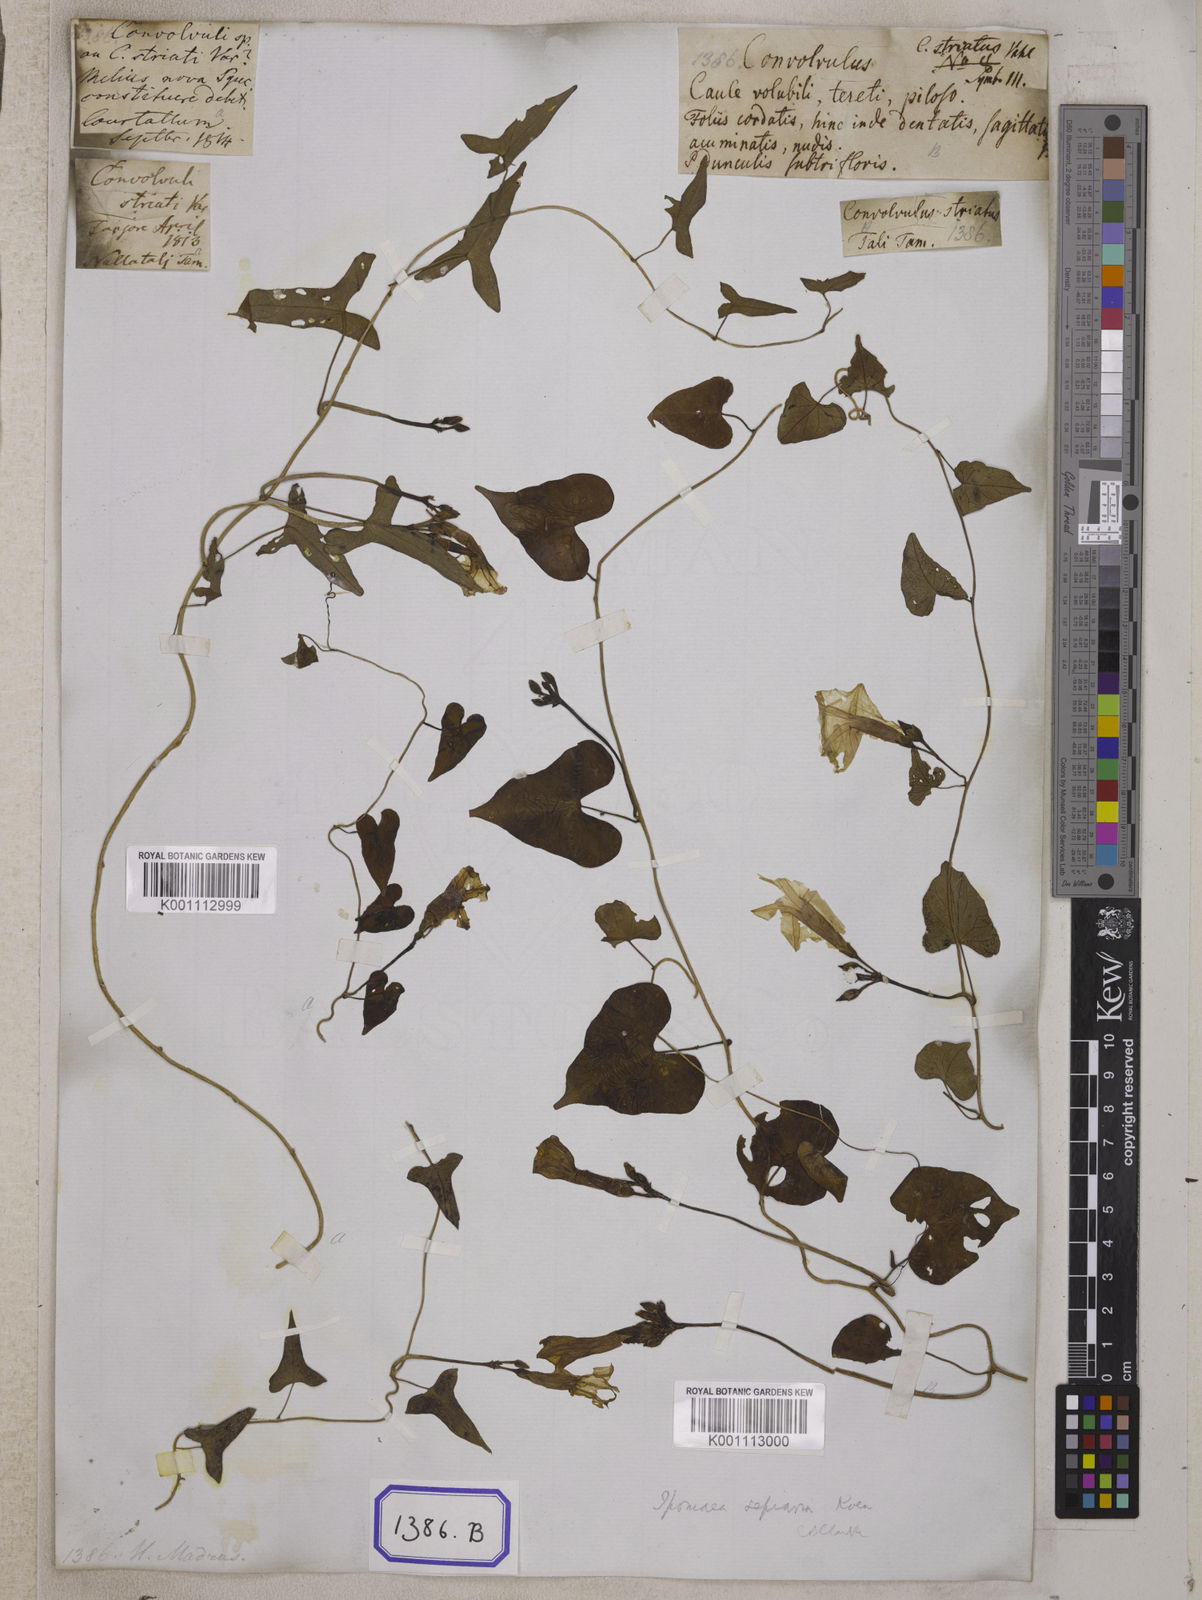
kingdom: Plantae
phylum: Tracheophyta
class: Magnoliopsida
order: Solanales
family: Convolvulaceae
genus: Convolvulus
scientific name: Convolvulus
